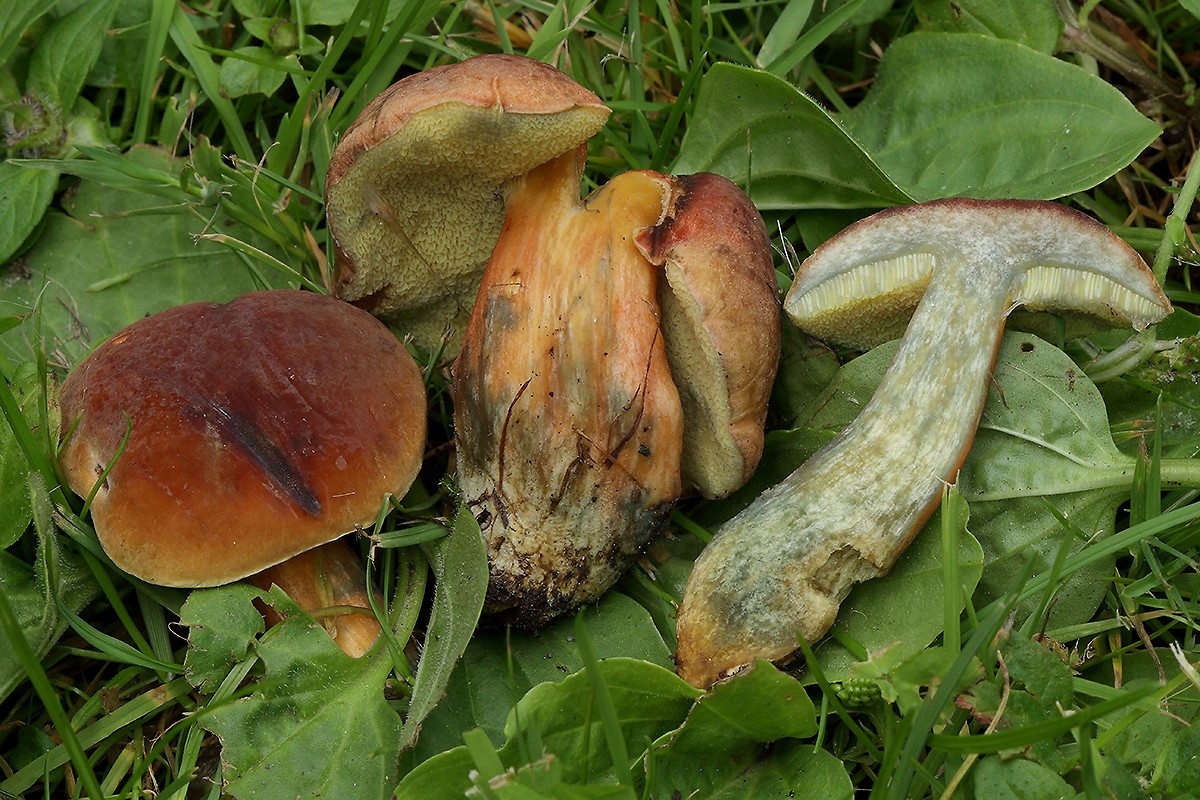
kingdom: Fungi
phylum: Basidiomycota
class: Agaricomycetes
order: Boletales
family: Boletaceae
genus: Hortiboletus
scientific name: Hortiboletus bubalinus
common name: aurora-rørhat
